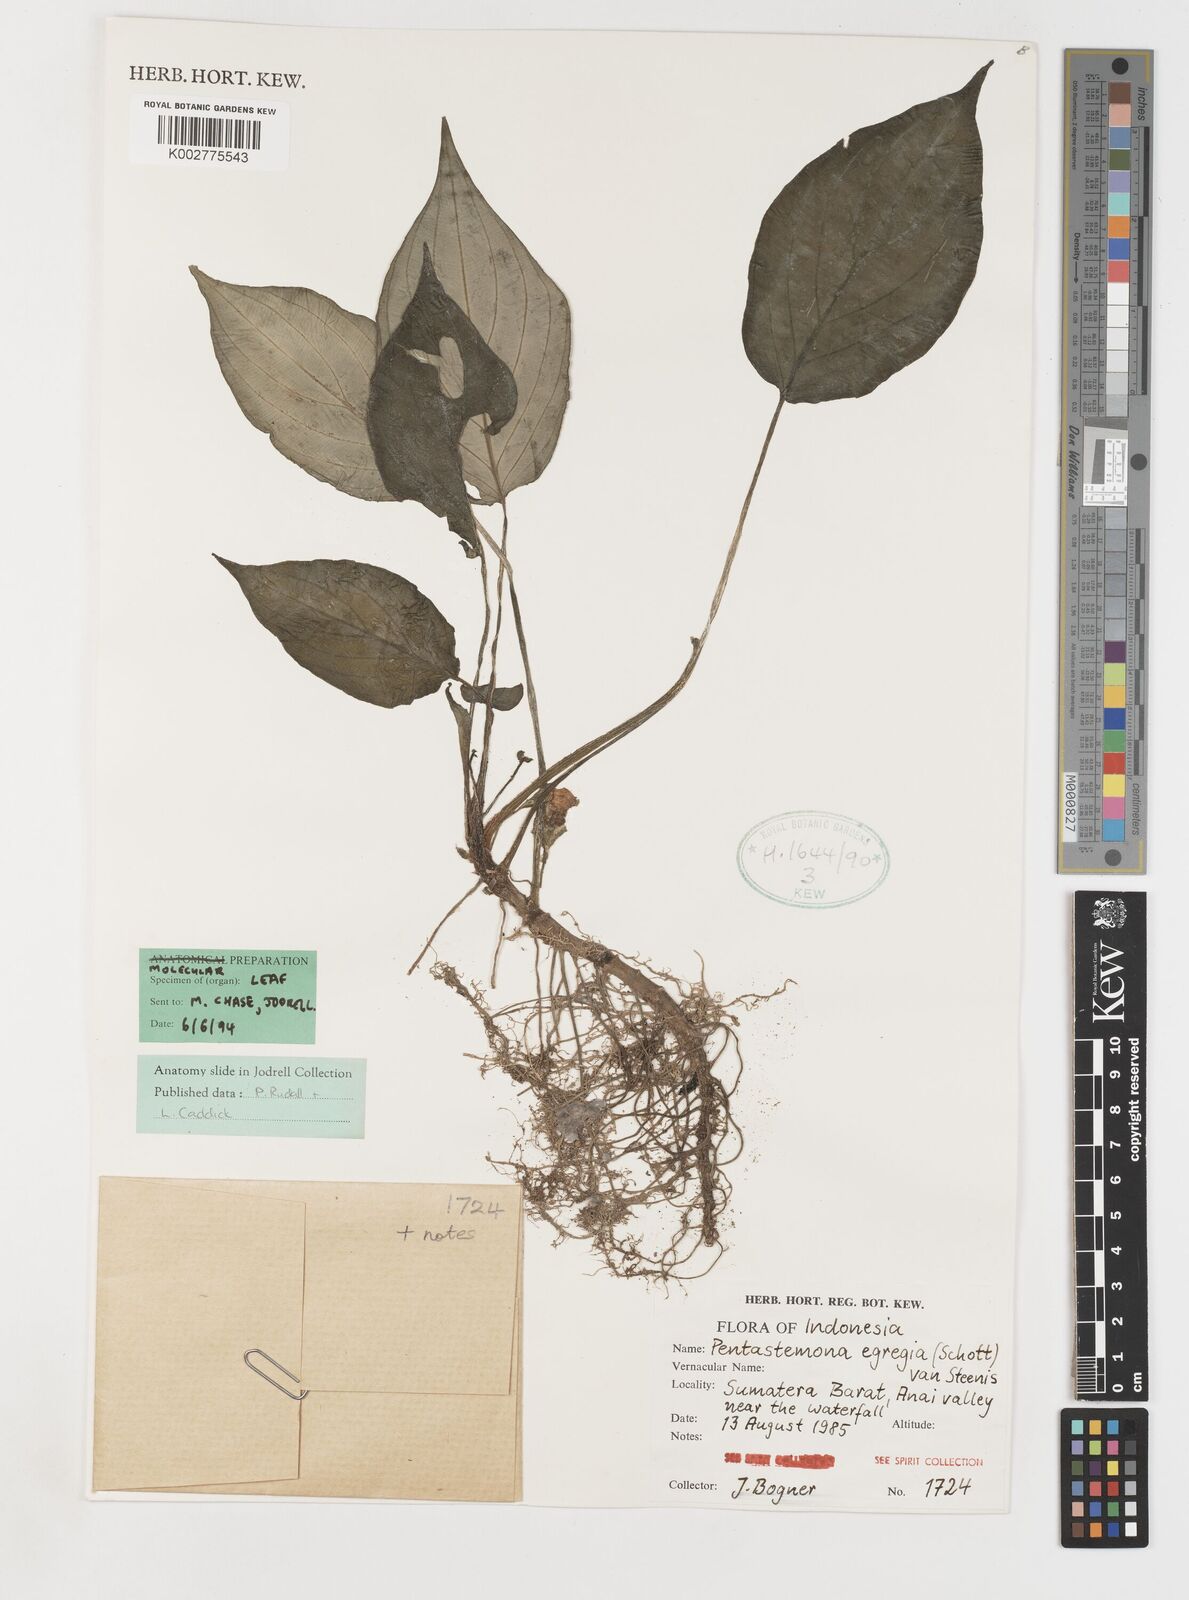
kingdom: Plantae
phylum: Tracheophyta
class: Liliopsida
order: Pandanales
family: Stemonaceae
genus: Pentastemona
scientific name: Pentastemona egregia
